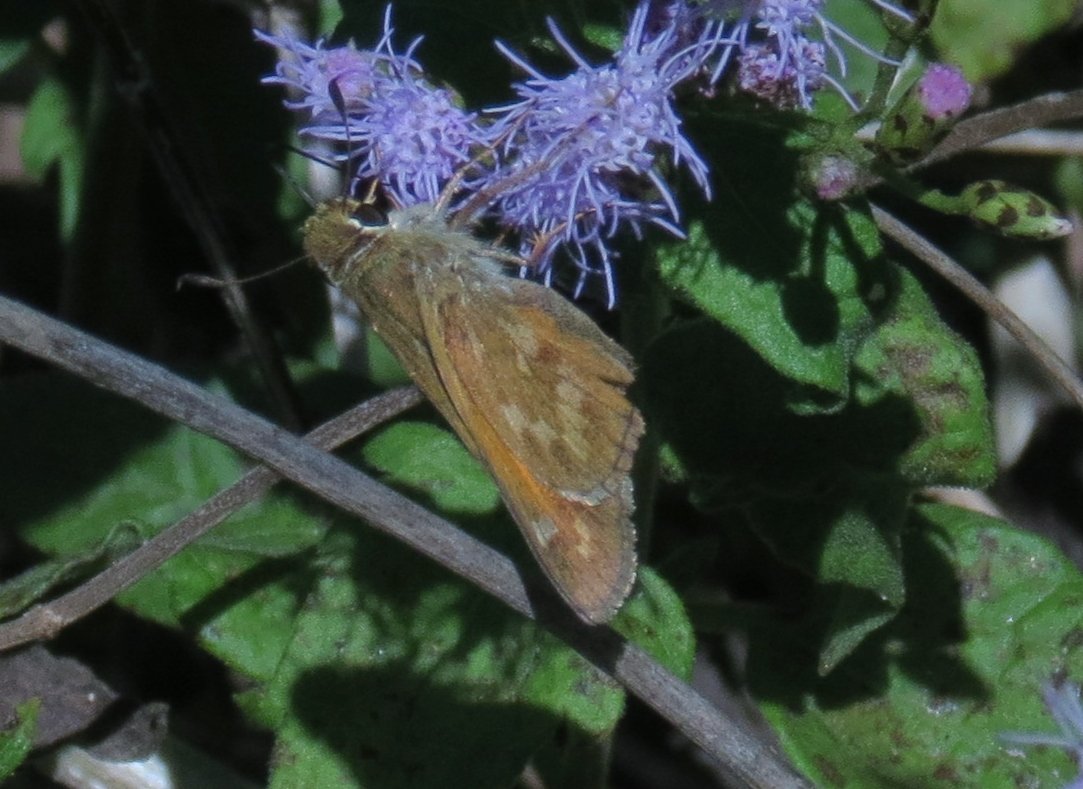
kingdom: Animalia
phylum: Arthropoda
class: Insecta
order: Lepidoptera
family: Hesperiidae
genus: Atalopedes
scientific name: Atalopedes campestris
